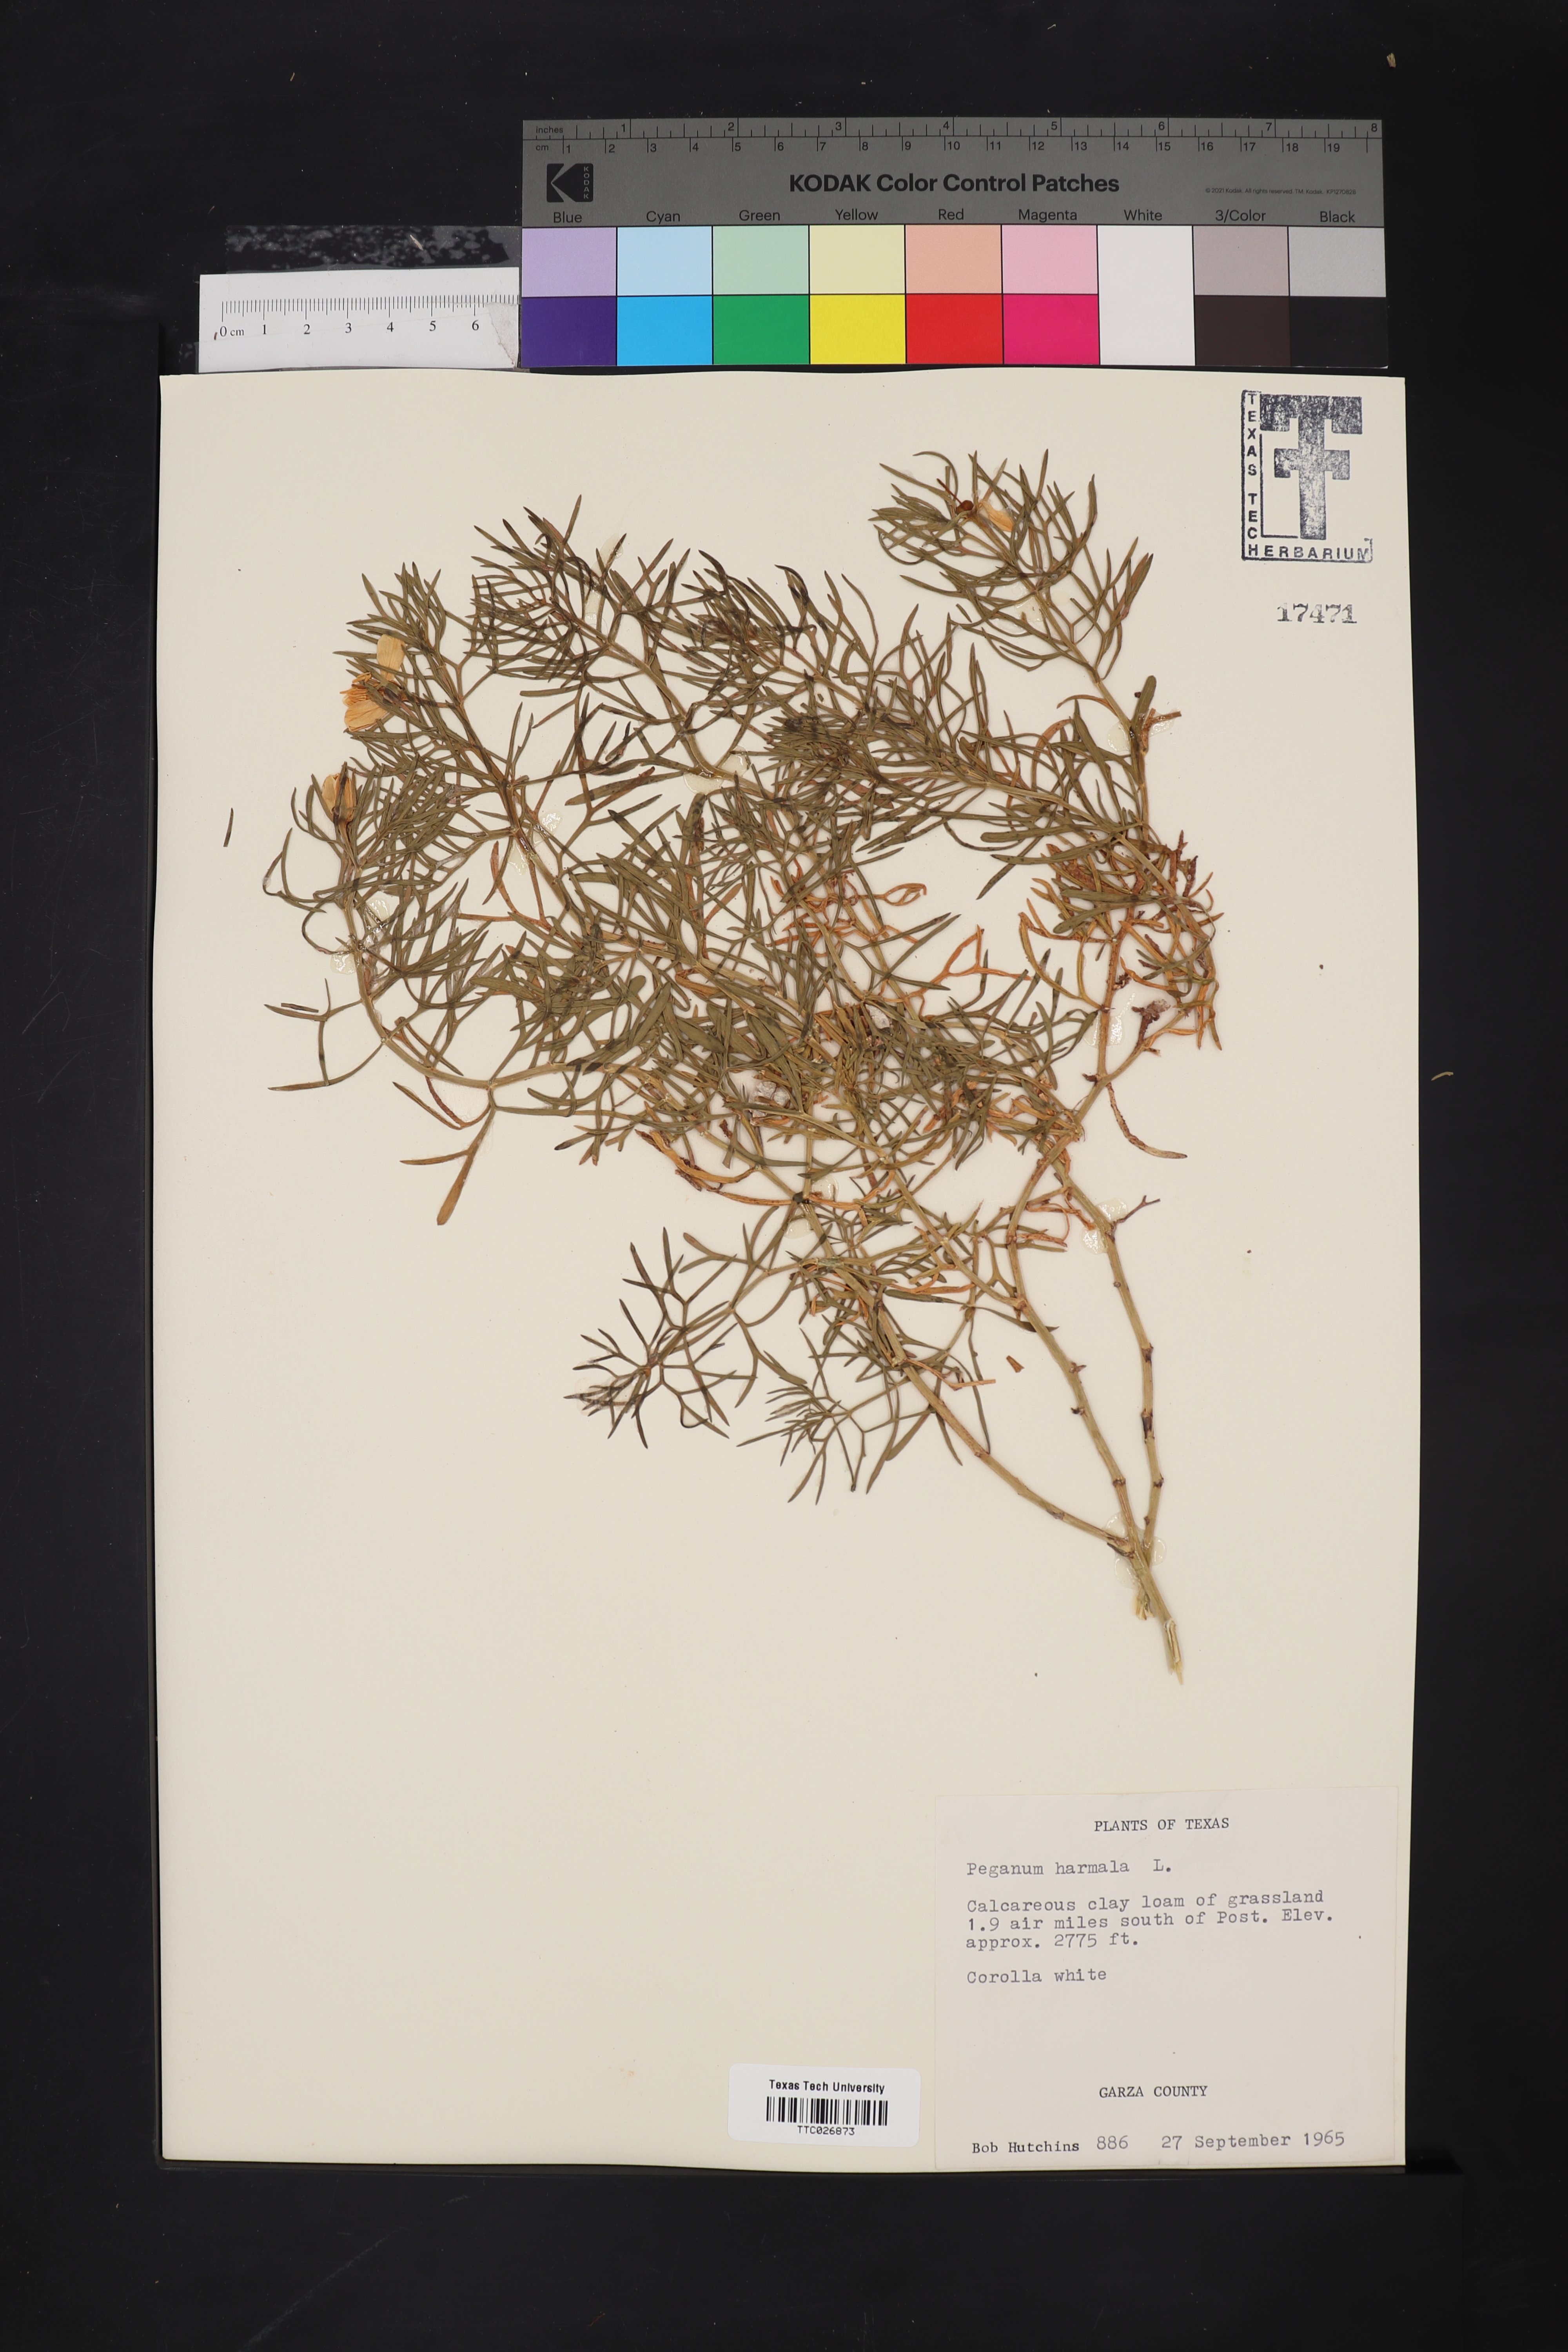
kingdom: Plantae
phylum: Tracheophyta
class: Magnoliopsida
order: Sapindales
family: Tetradiclidaceae
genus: Peganum
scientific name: Peganum harmala
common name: Harmal peganum
